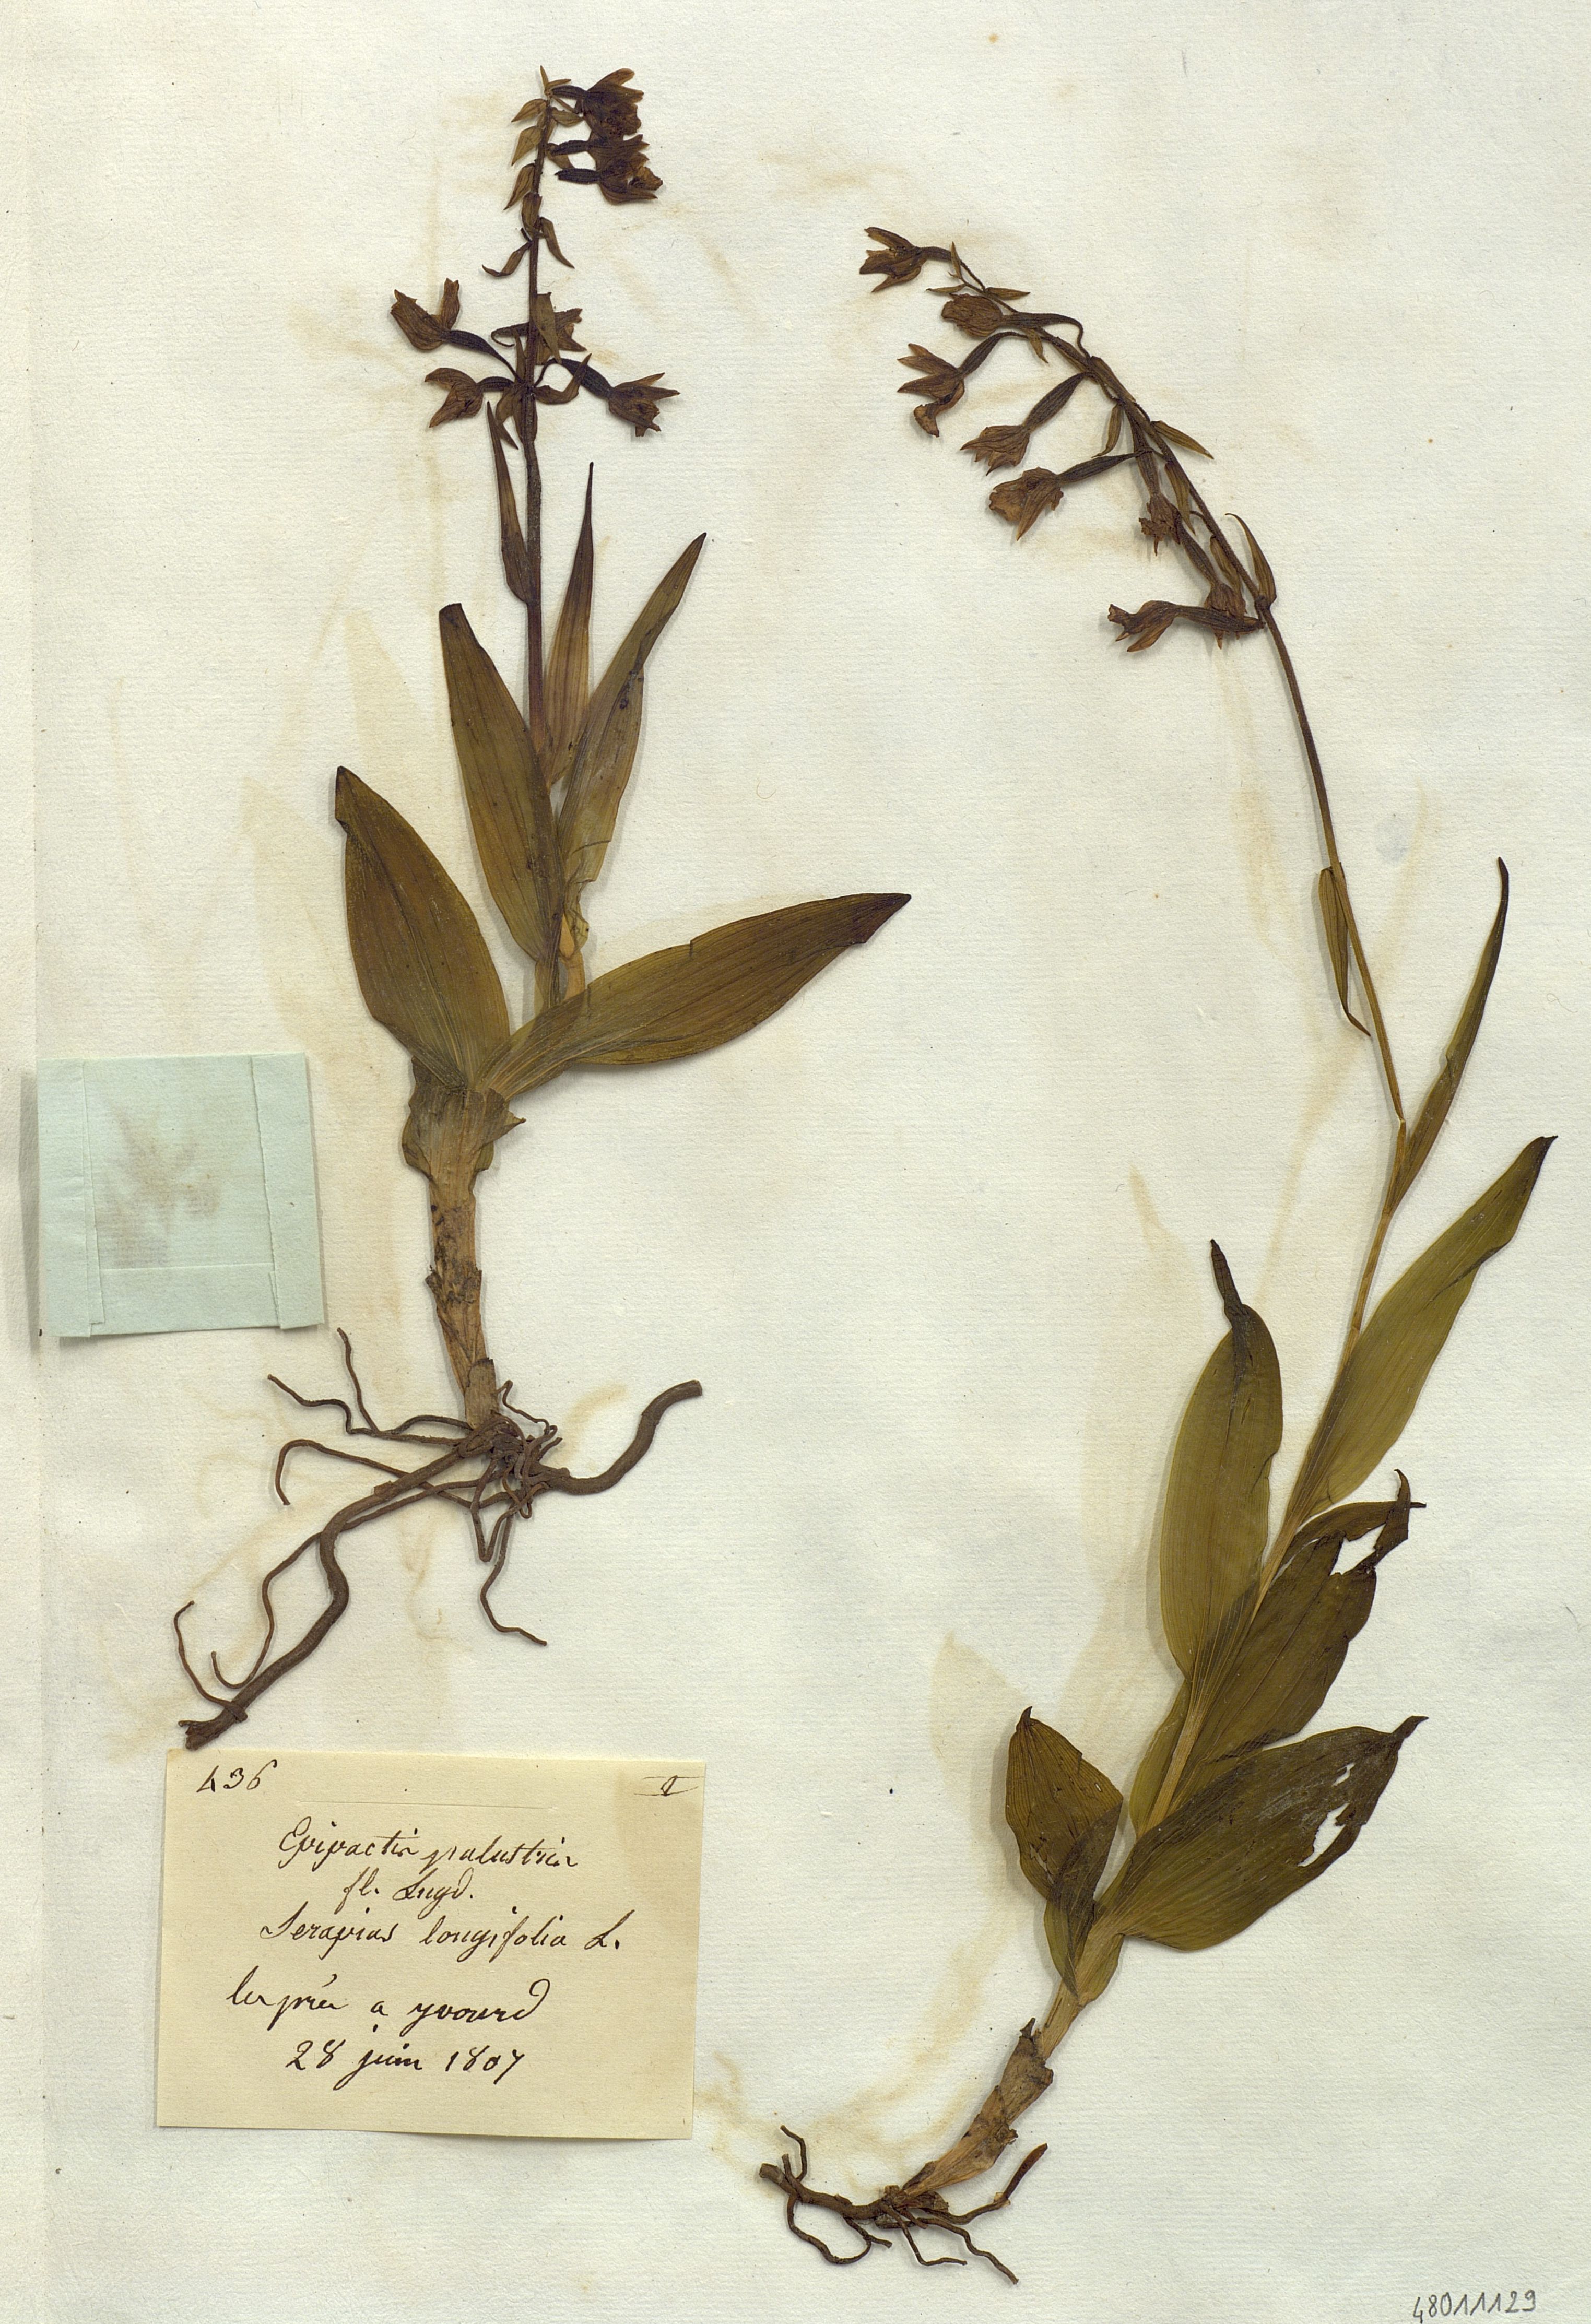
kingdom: Plantae
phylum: Tracheophyta
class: Liliopsida
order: Asparagales
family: Orchidaceae
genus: Epipactis
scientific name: Epipactis palustris
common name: Marsh helleborine
